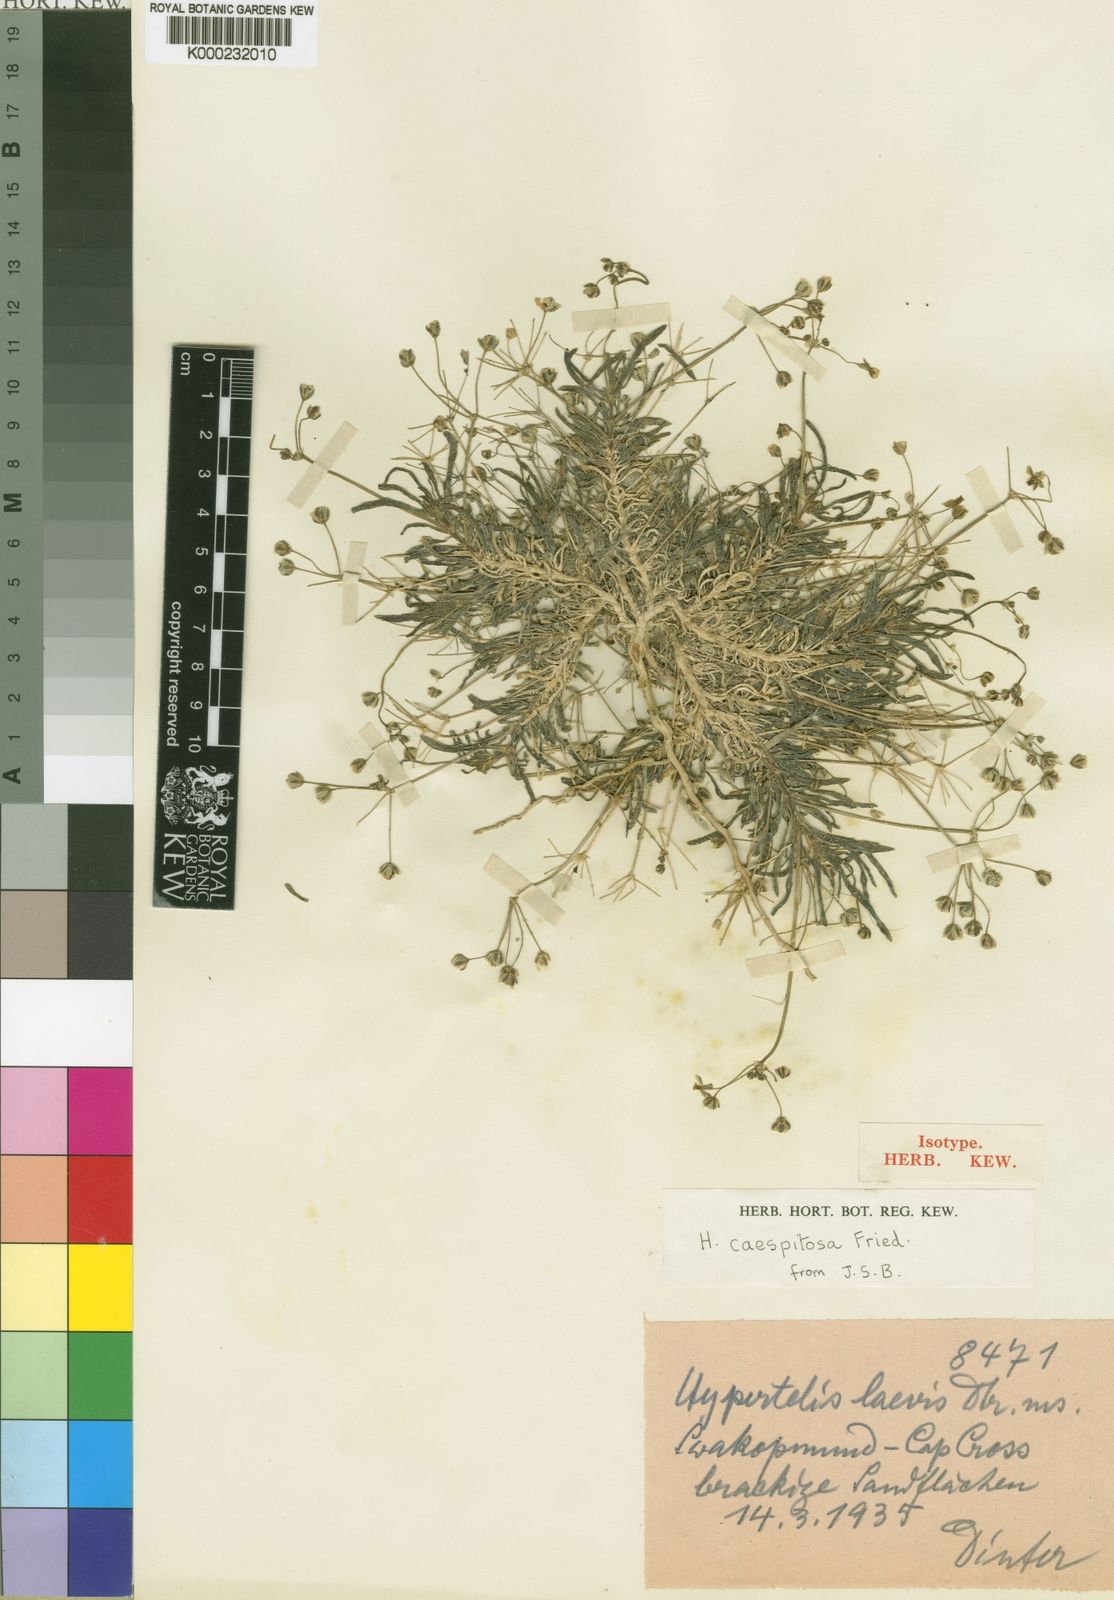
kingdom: Plantae
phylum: Tracheophyta
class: Magnoliopsida
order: Caryophyllales
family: Kewaceae
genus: Kewa
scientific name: Kewa caespitosa
